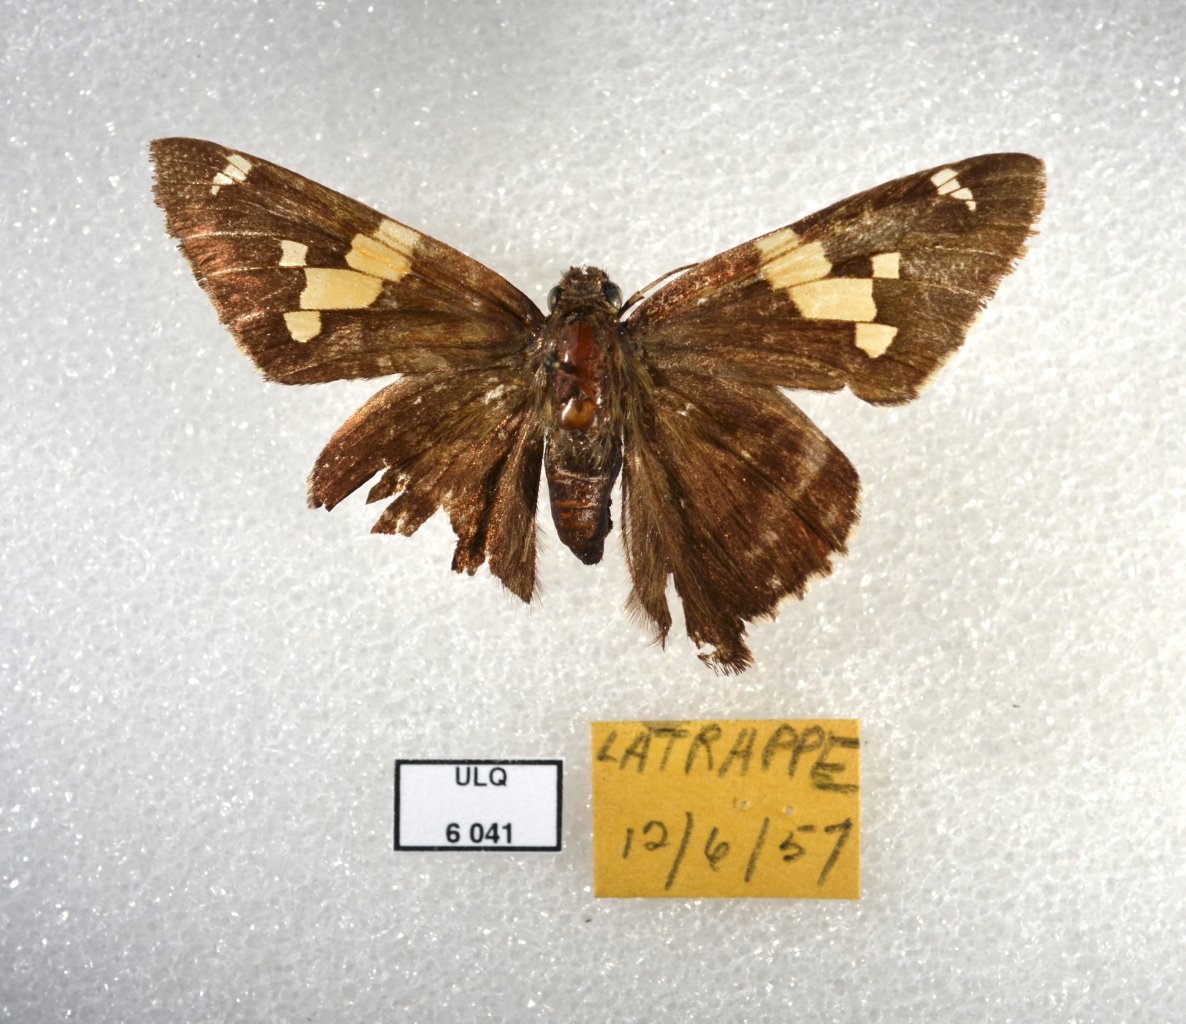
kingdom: Animalia
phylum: Arthropoda
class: Insecta
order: Lepidoptera
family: Hesperiidae
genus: Epargyreus
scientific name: Epargyreus clarus
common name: Silver-spotted Skipper
